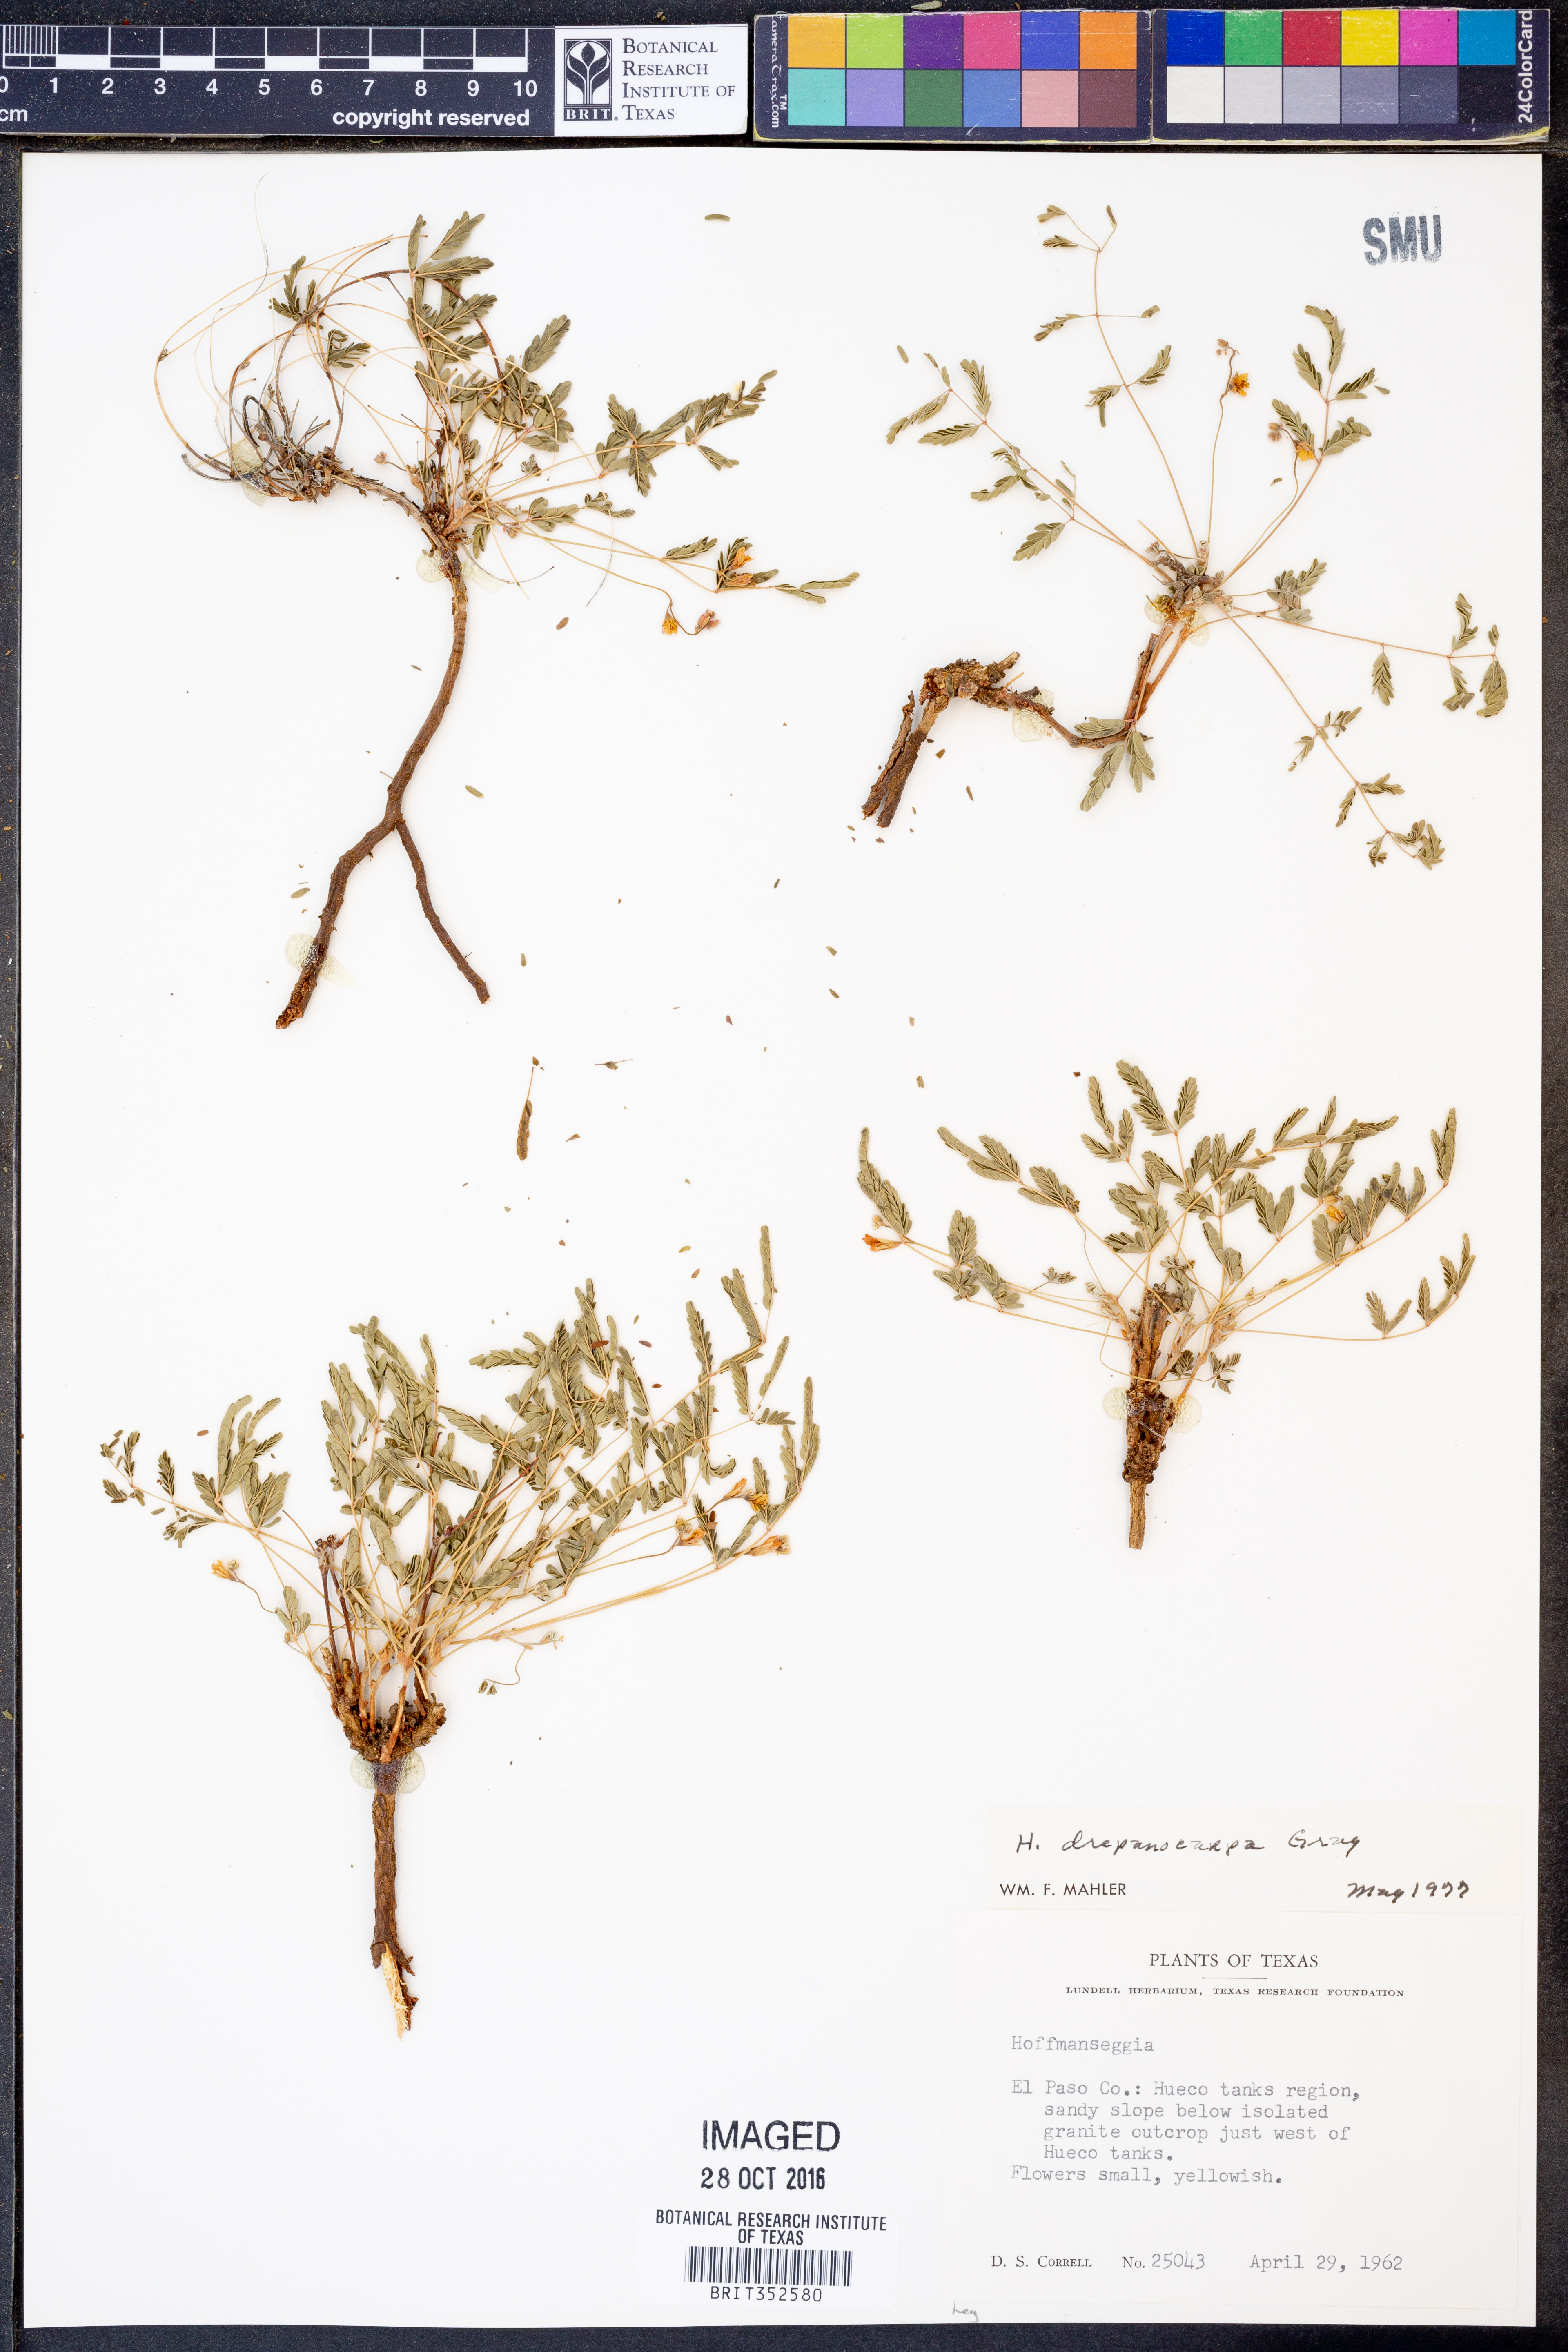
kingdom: Plantae
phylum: Tracheophyta
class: Magnoliopsida
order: Fabales
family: Fabaceae
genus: Hoffmannseggia
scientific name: Hoffmannseggia drepanocarpa
